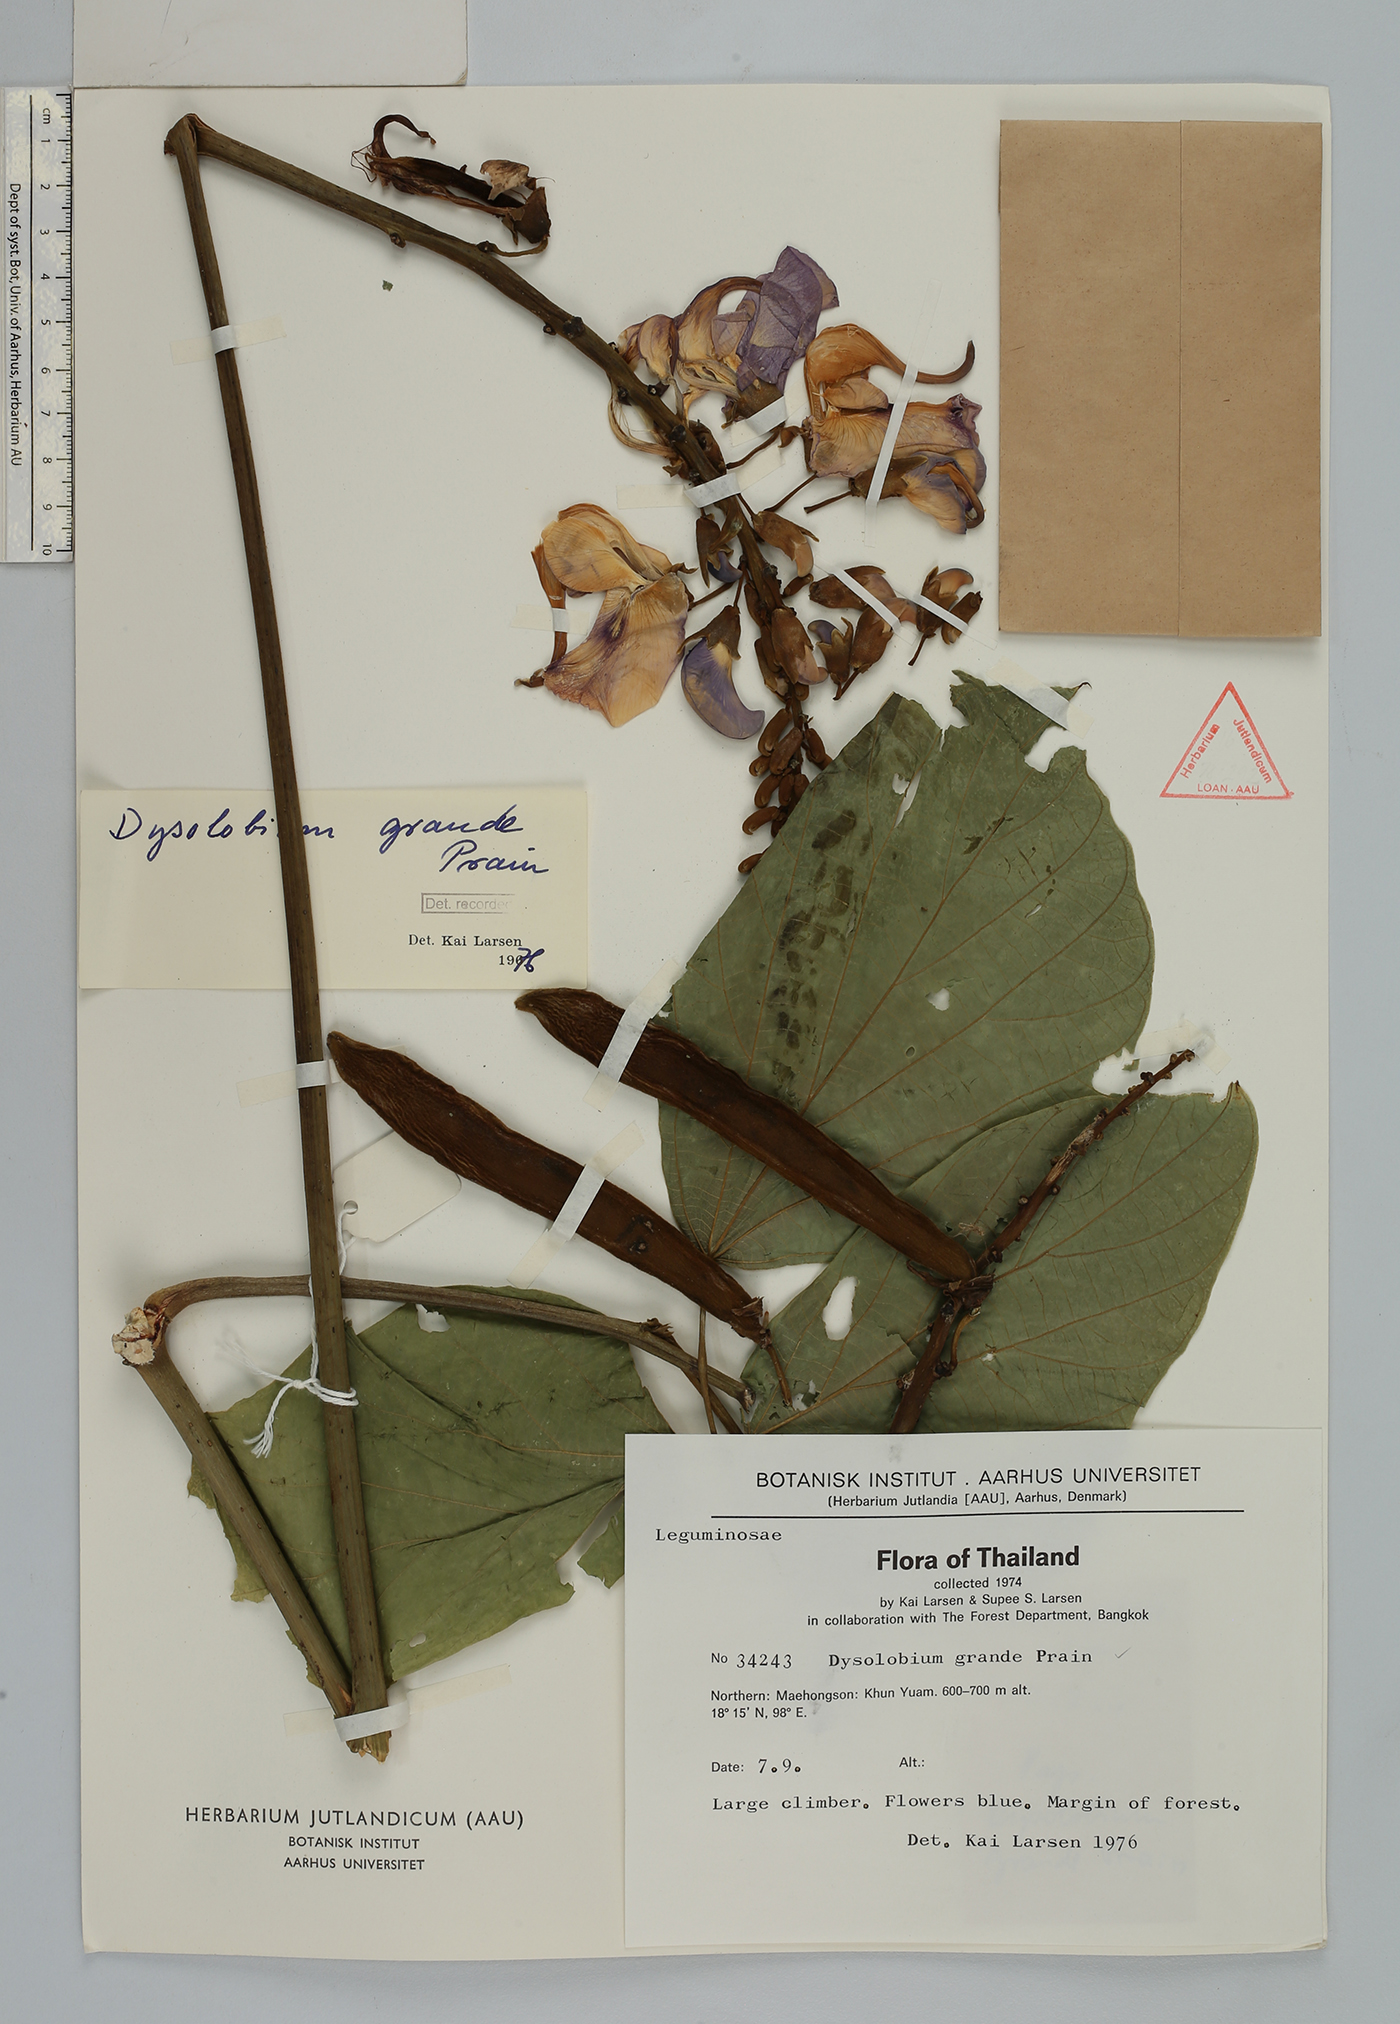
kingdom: Plantae
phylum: Tracheophyta
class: Magnoliopsida
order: Fabales
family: Fabaceae
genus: Dysolobium
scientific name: Dysolobium grande
